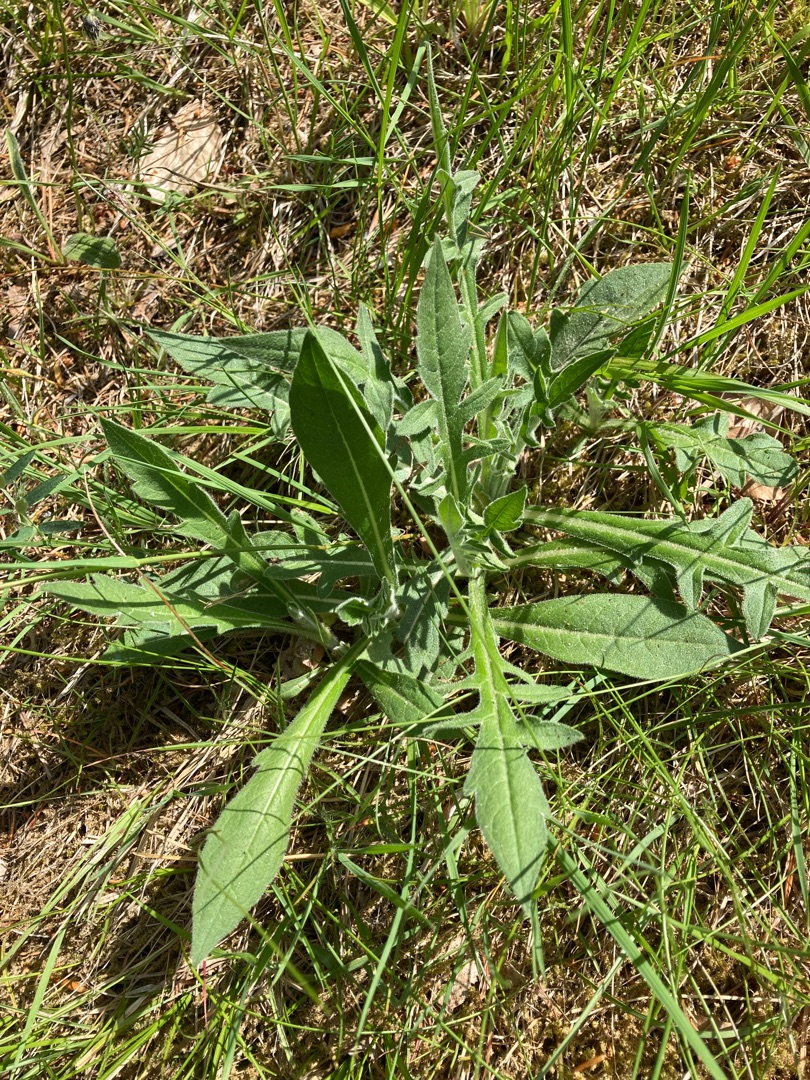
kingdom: Plantae
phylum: Tracheophyta
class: Magnoliopsida
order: Dipsacales
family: Caprifoliaceae
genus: Knautia
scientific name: Knautia arvensis
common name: Blåhat
